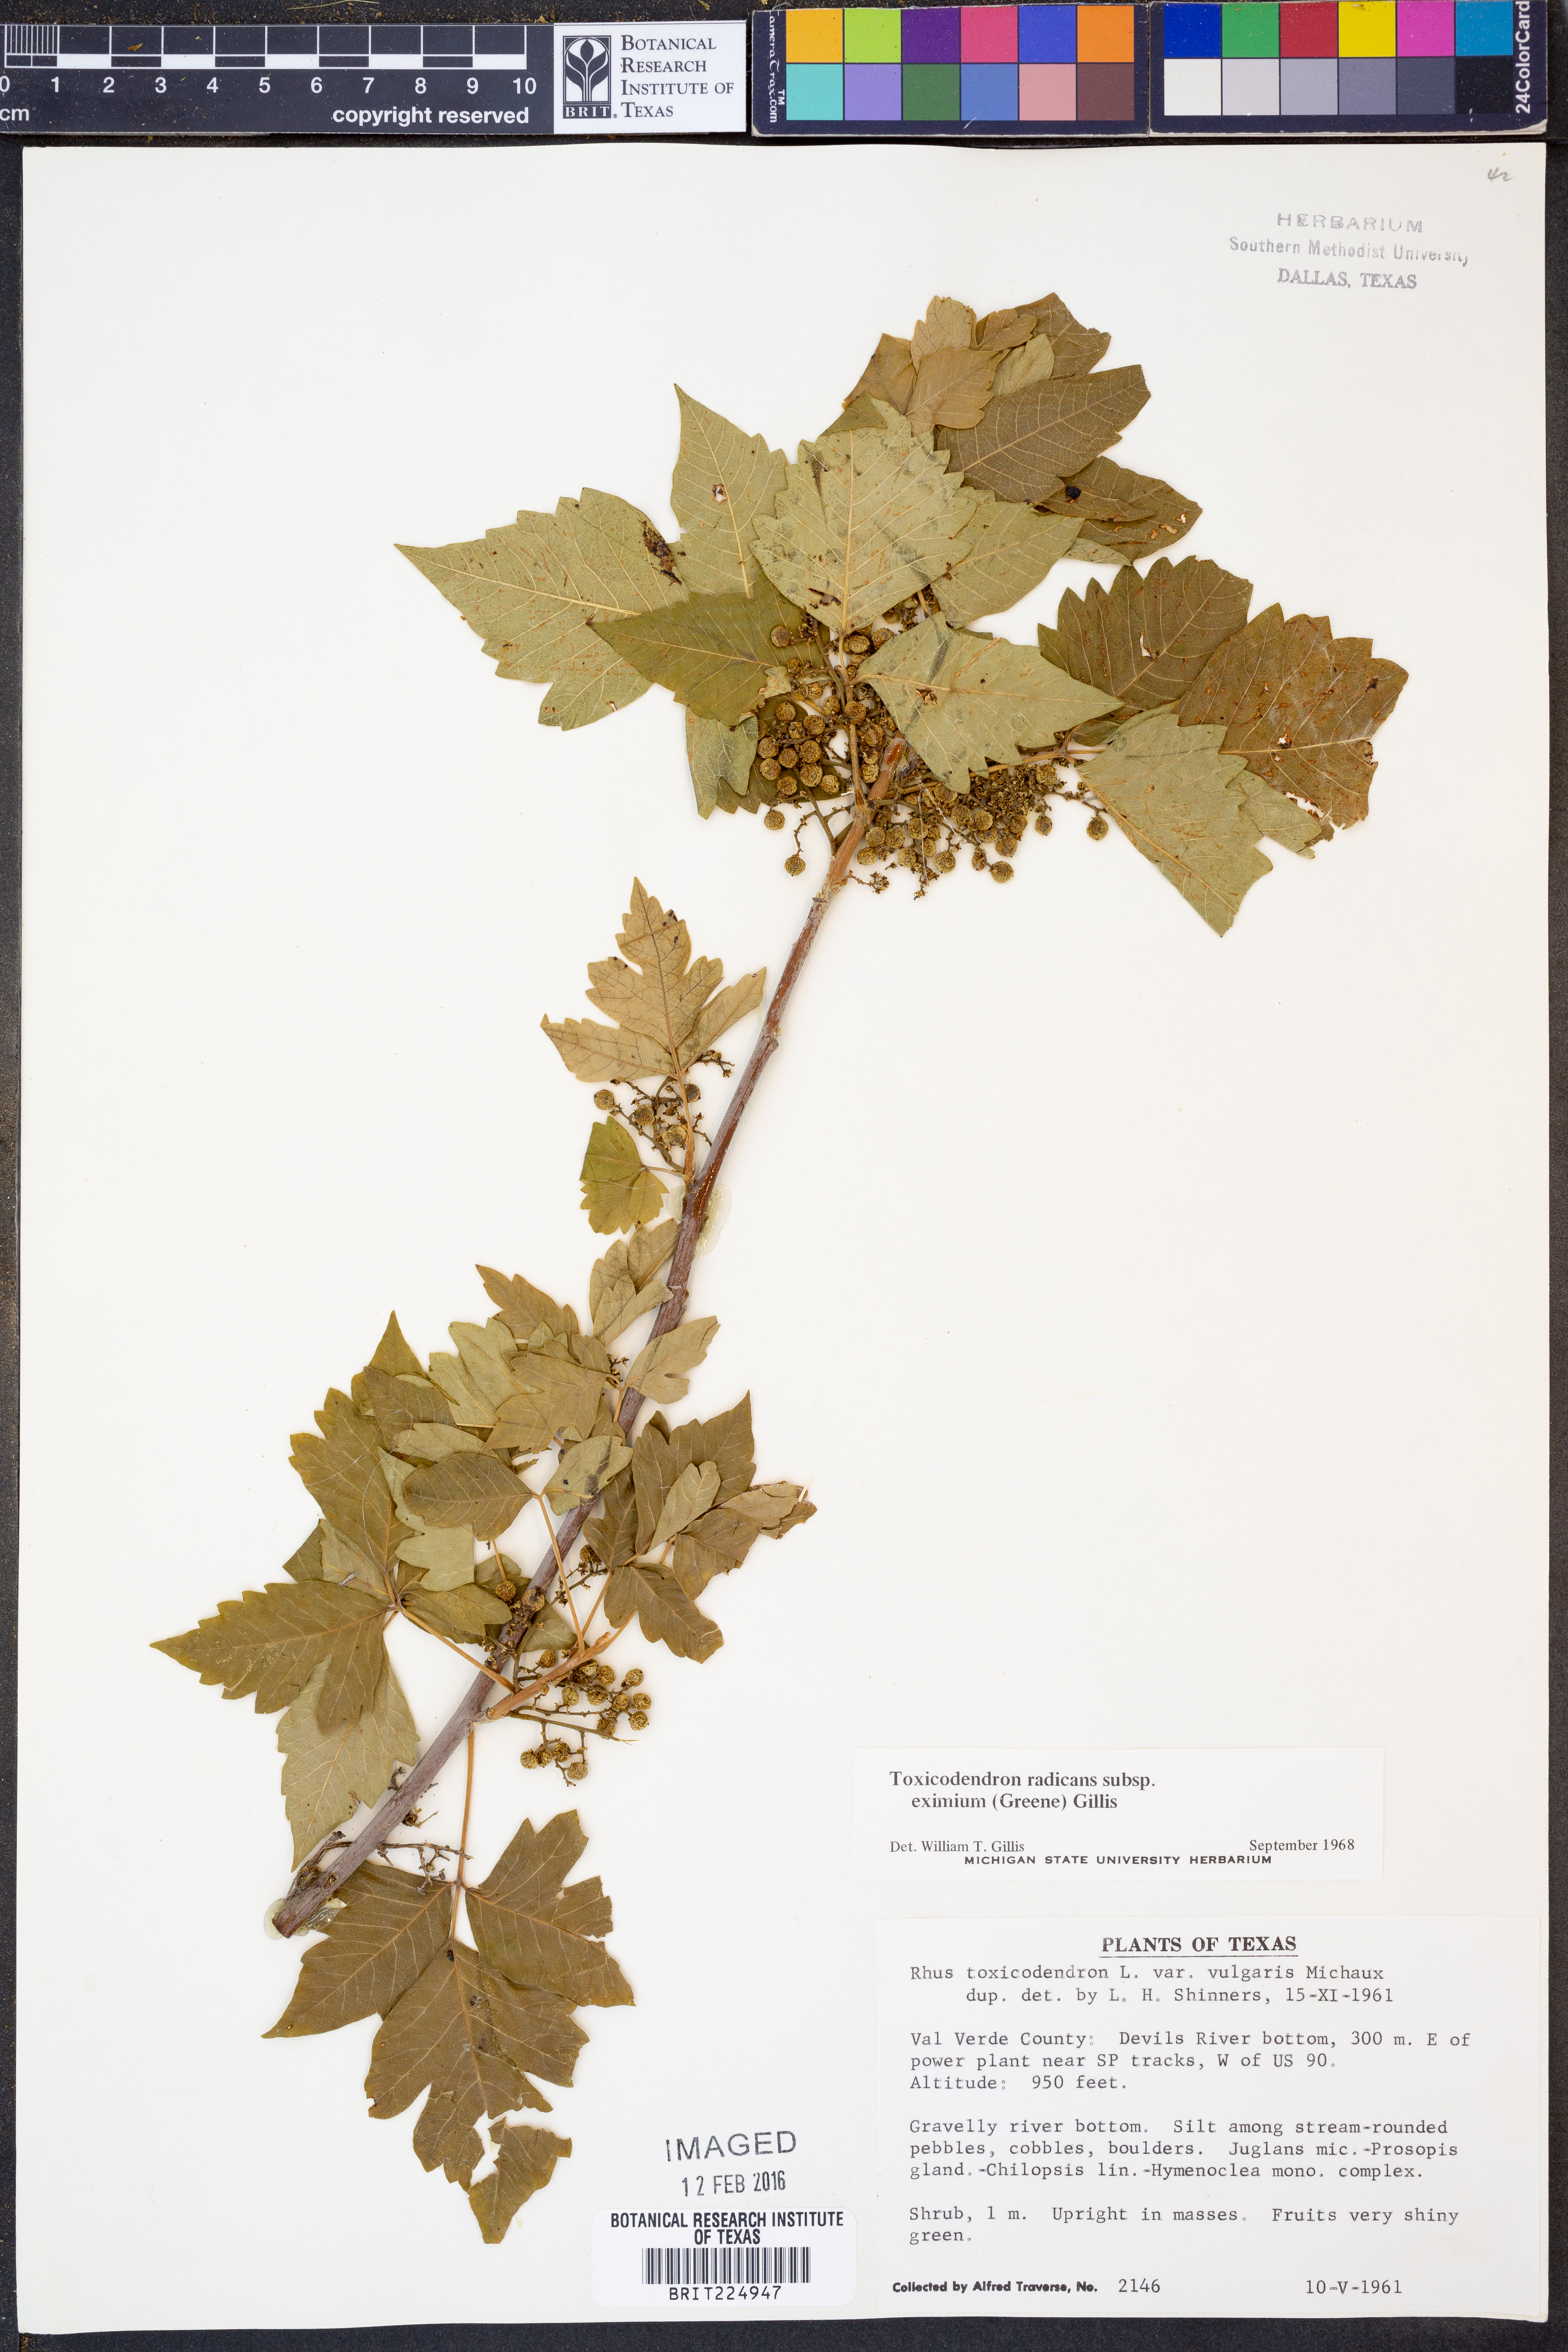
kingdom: Plantae
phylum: Tracheophyta
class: Magnoliopsida
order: Sapindales
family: Anacardiaceae
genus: Toxicodendron
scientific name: Toxicodendron radicans
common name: Poison ivy
